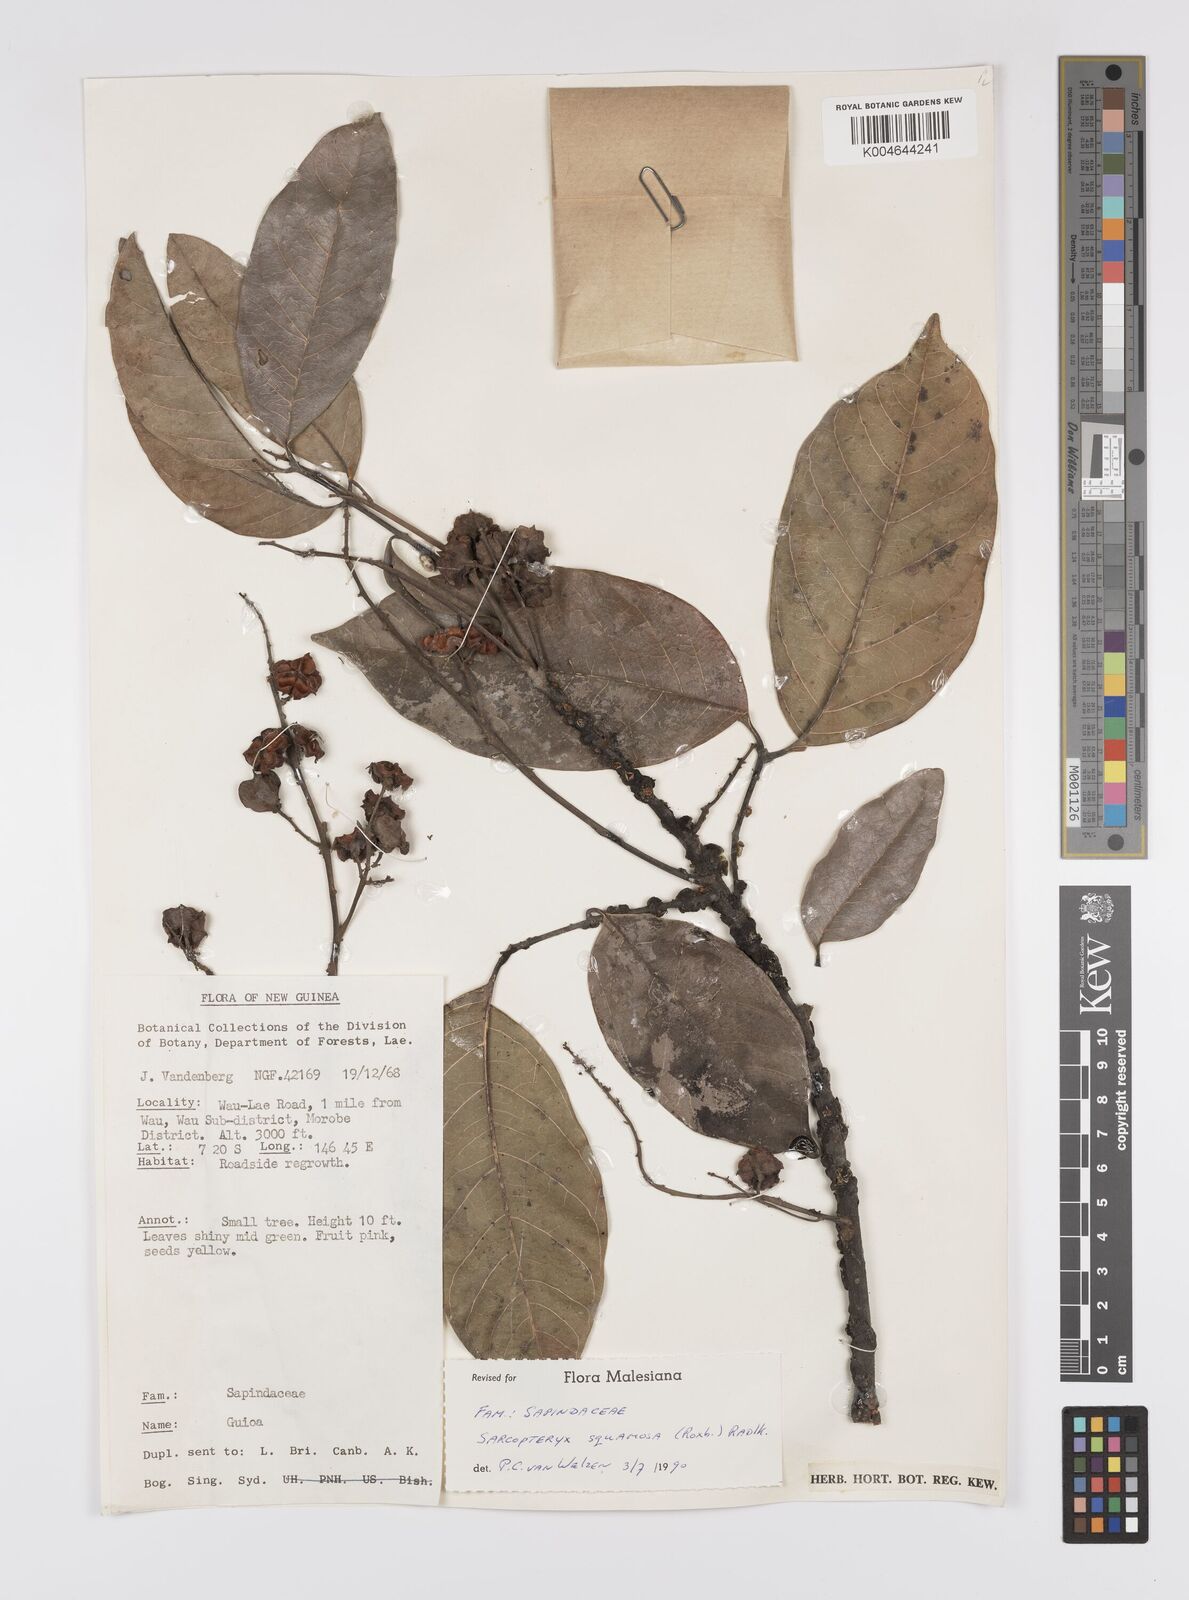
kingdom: Plantae
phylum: Tracheophyta
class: Magnoliopsida
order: Sapindales
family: Sapindaceae
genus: Sarcopteryx
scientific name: Sarcopteryx squamosa
